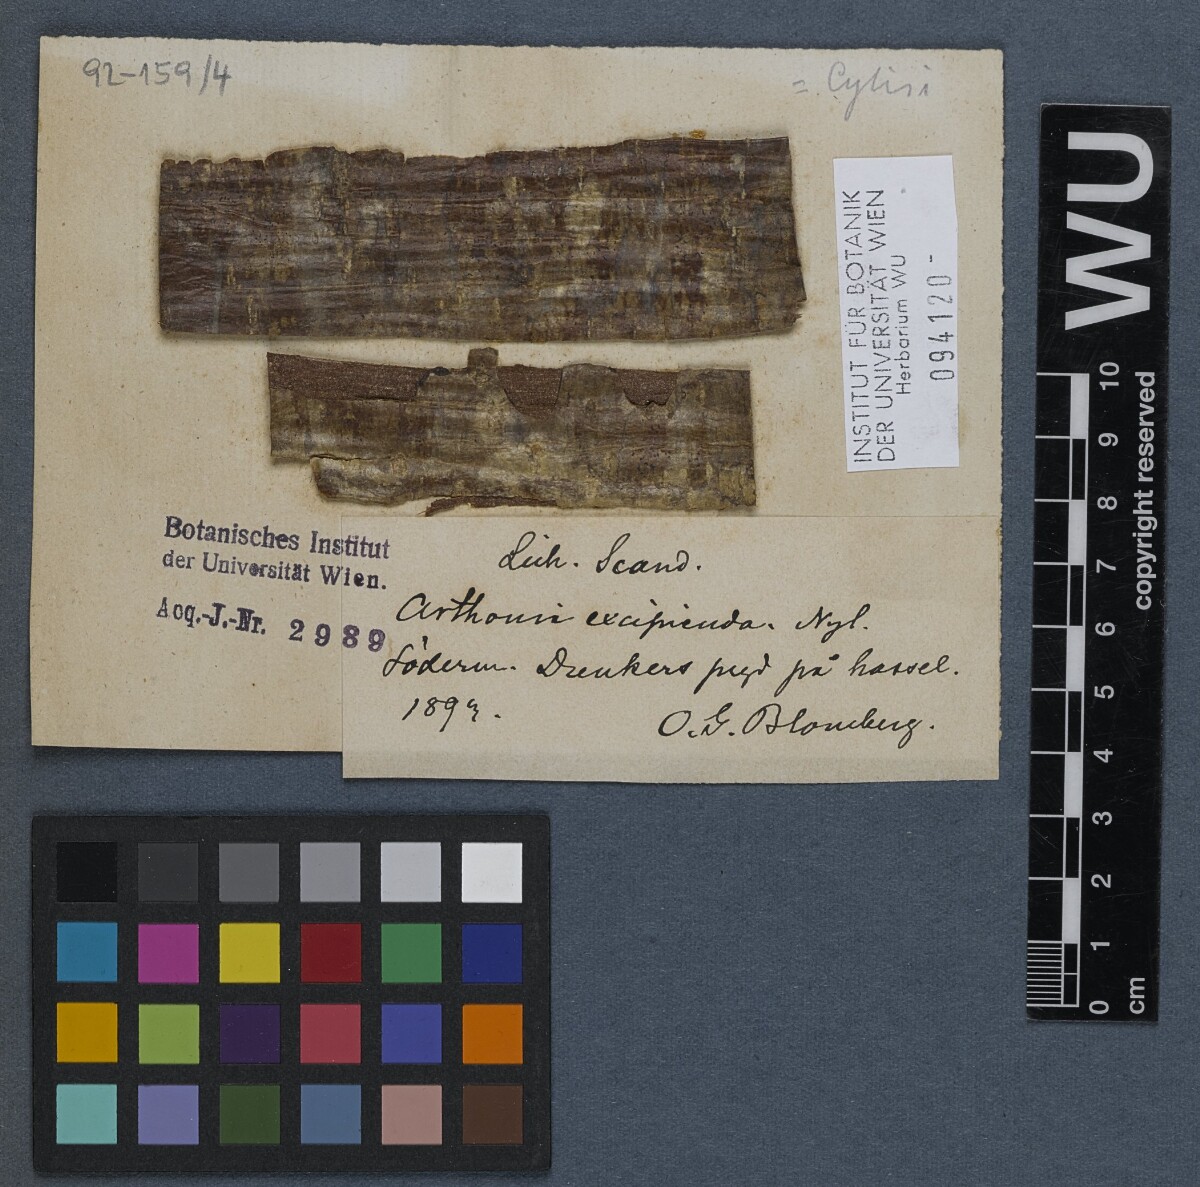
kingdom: Fungi
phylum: Ascomycota
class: Arthoniomycetes
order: Arthoniales
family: Arthoniaceae
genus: Naevia
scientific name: Naevia dispersa
